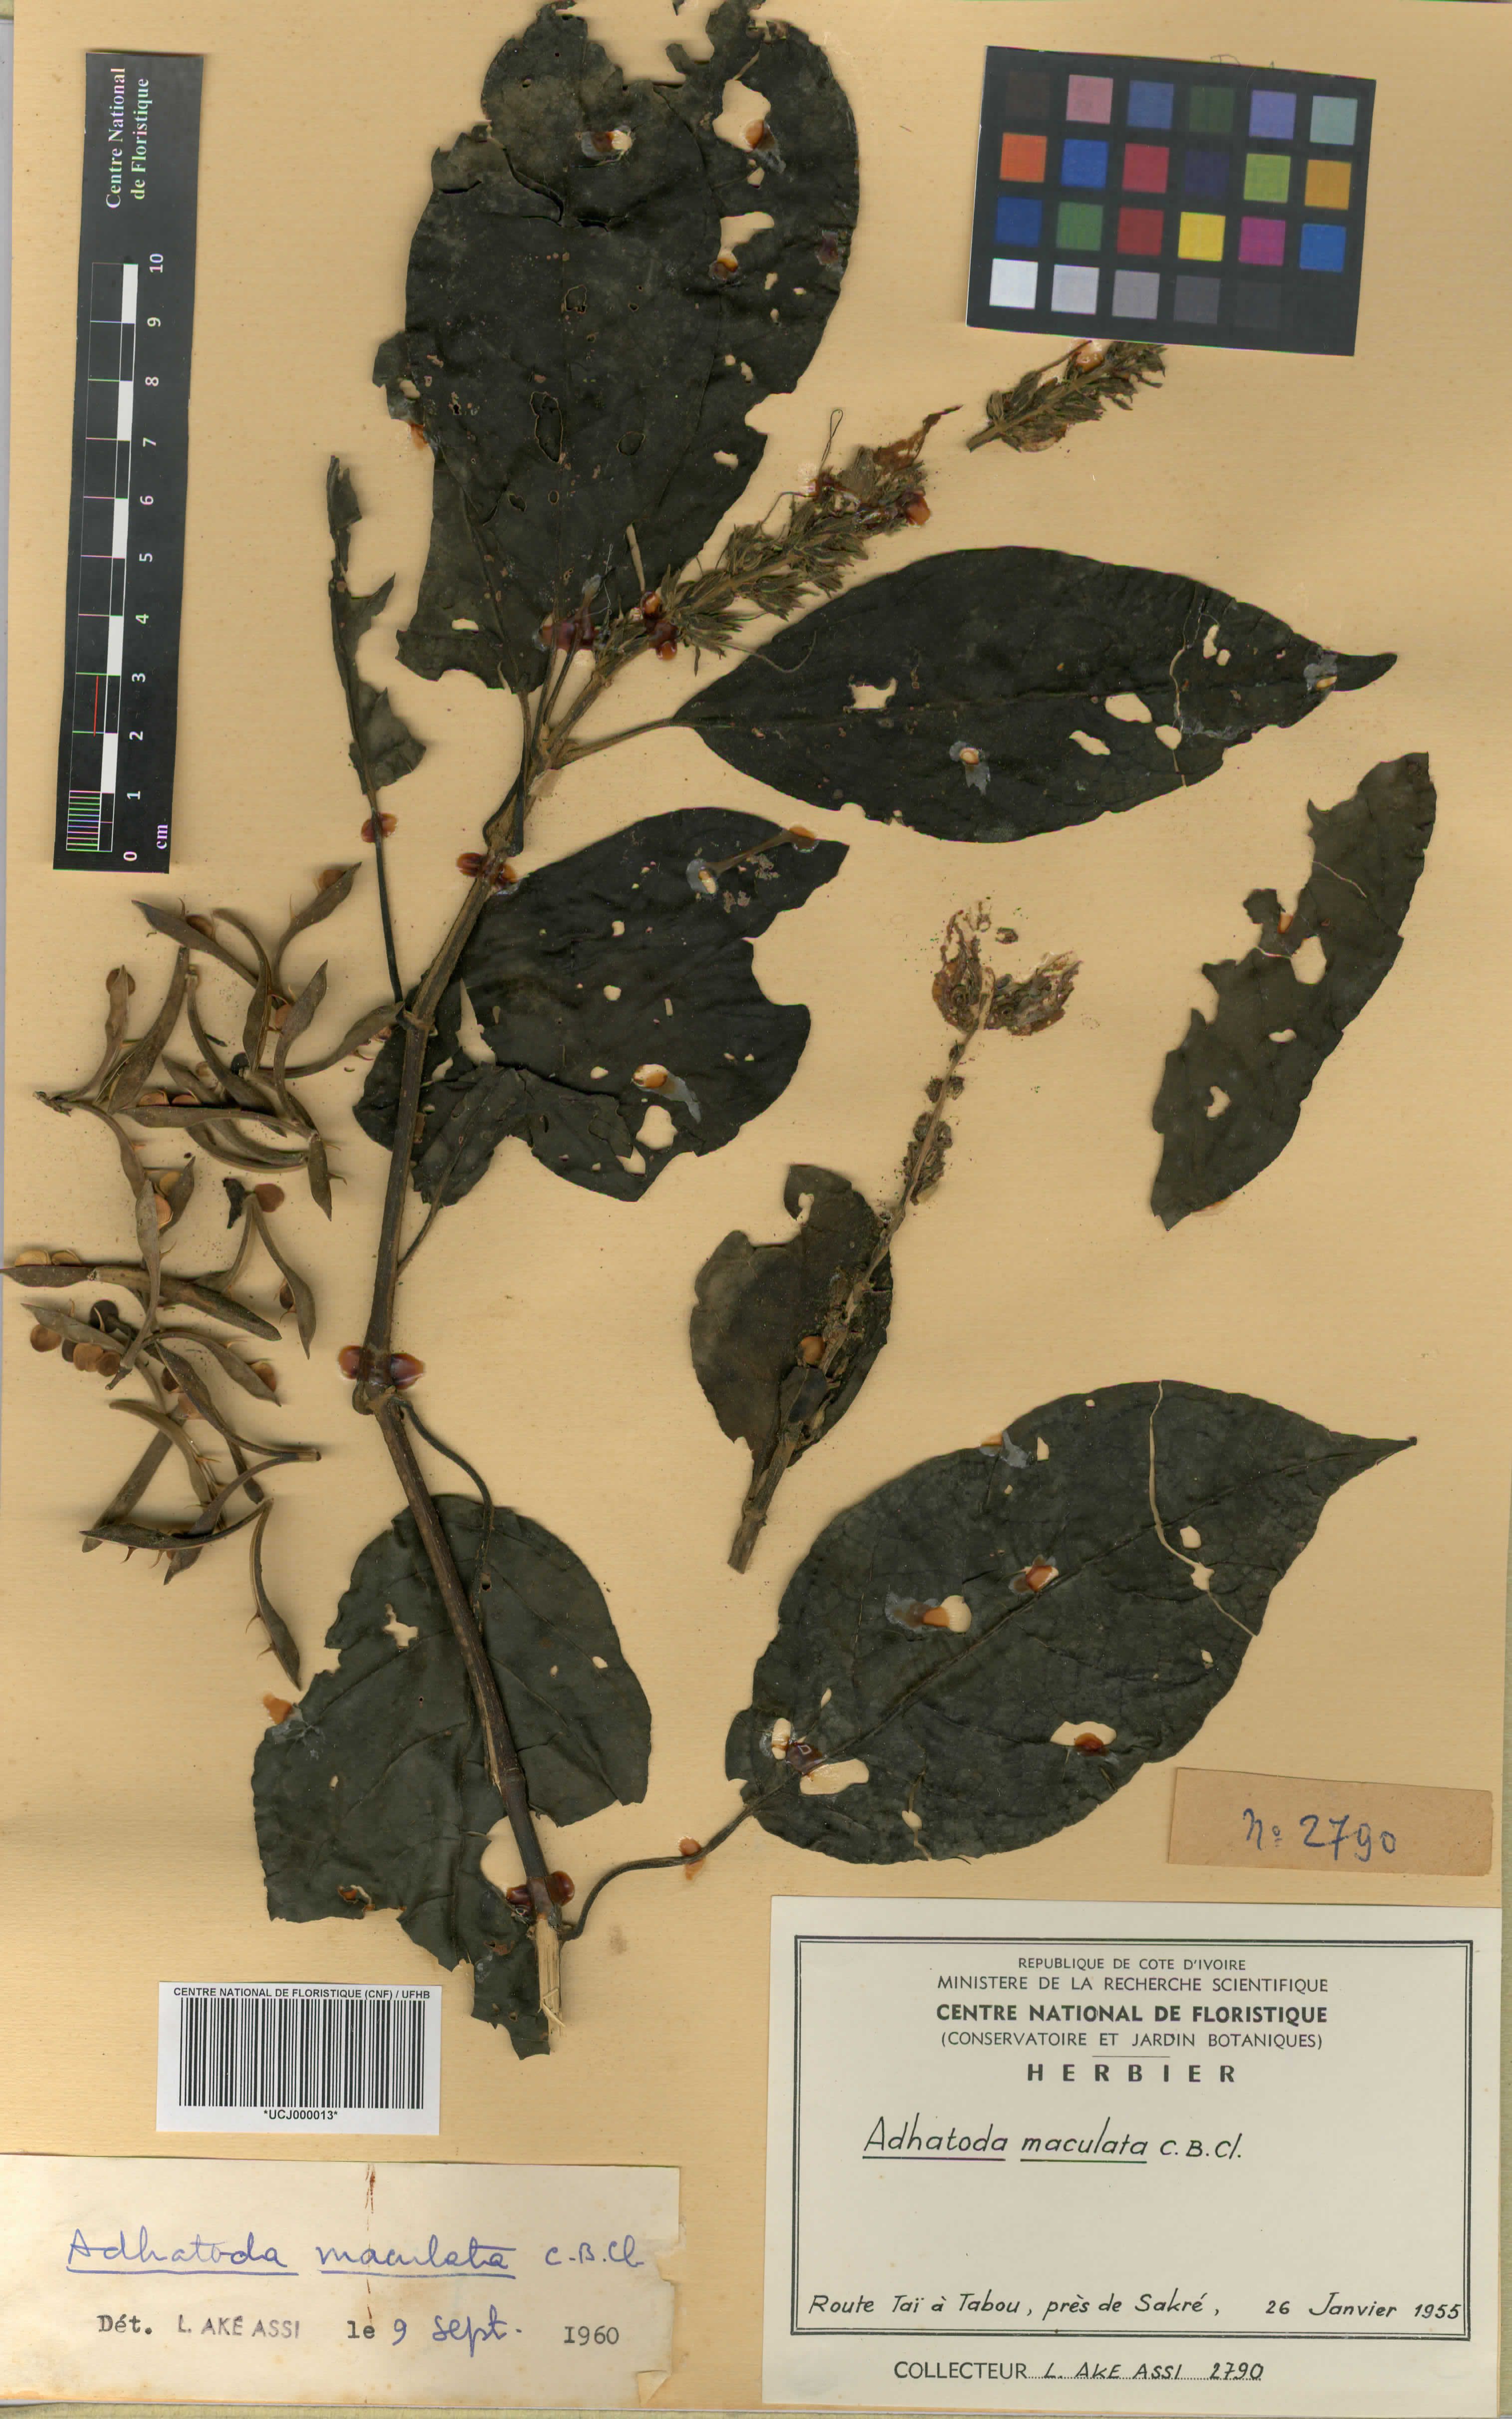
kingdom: Plantae
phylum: Tracheophyta
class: Magnoliopsida
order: Lamiales
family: Acanthaceae
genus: Asystasia
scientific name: Asystasia trichotogyne
